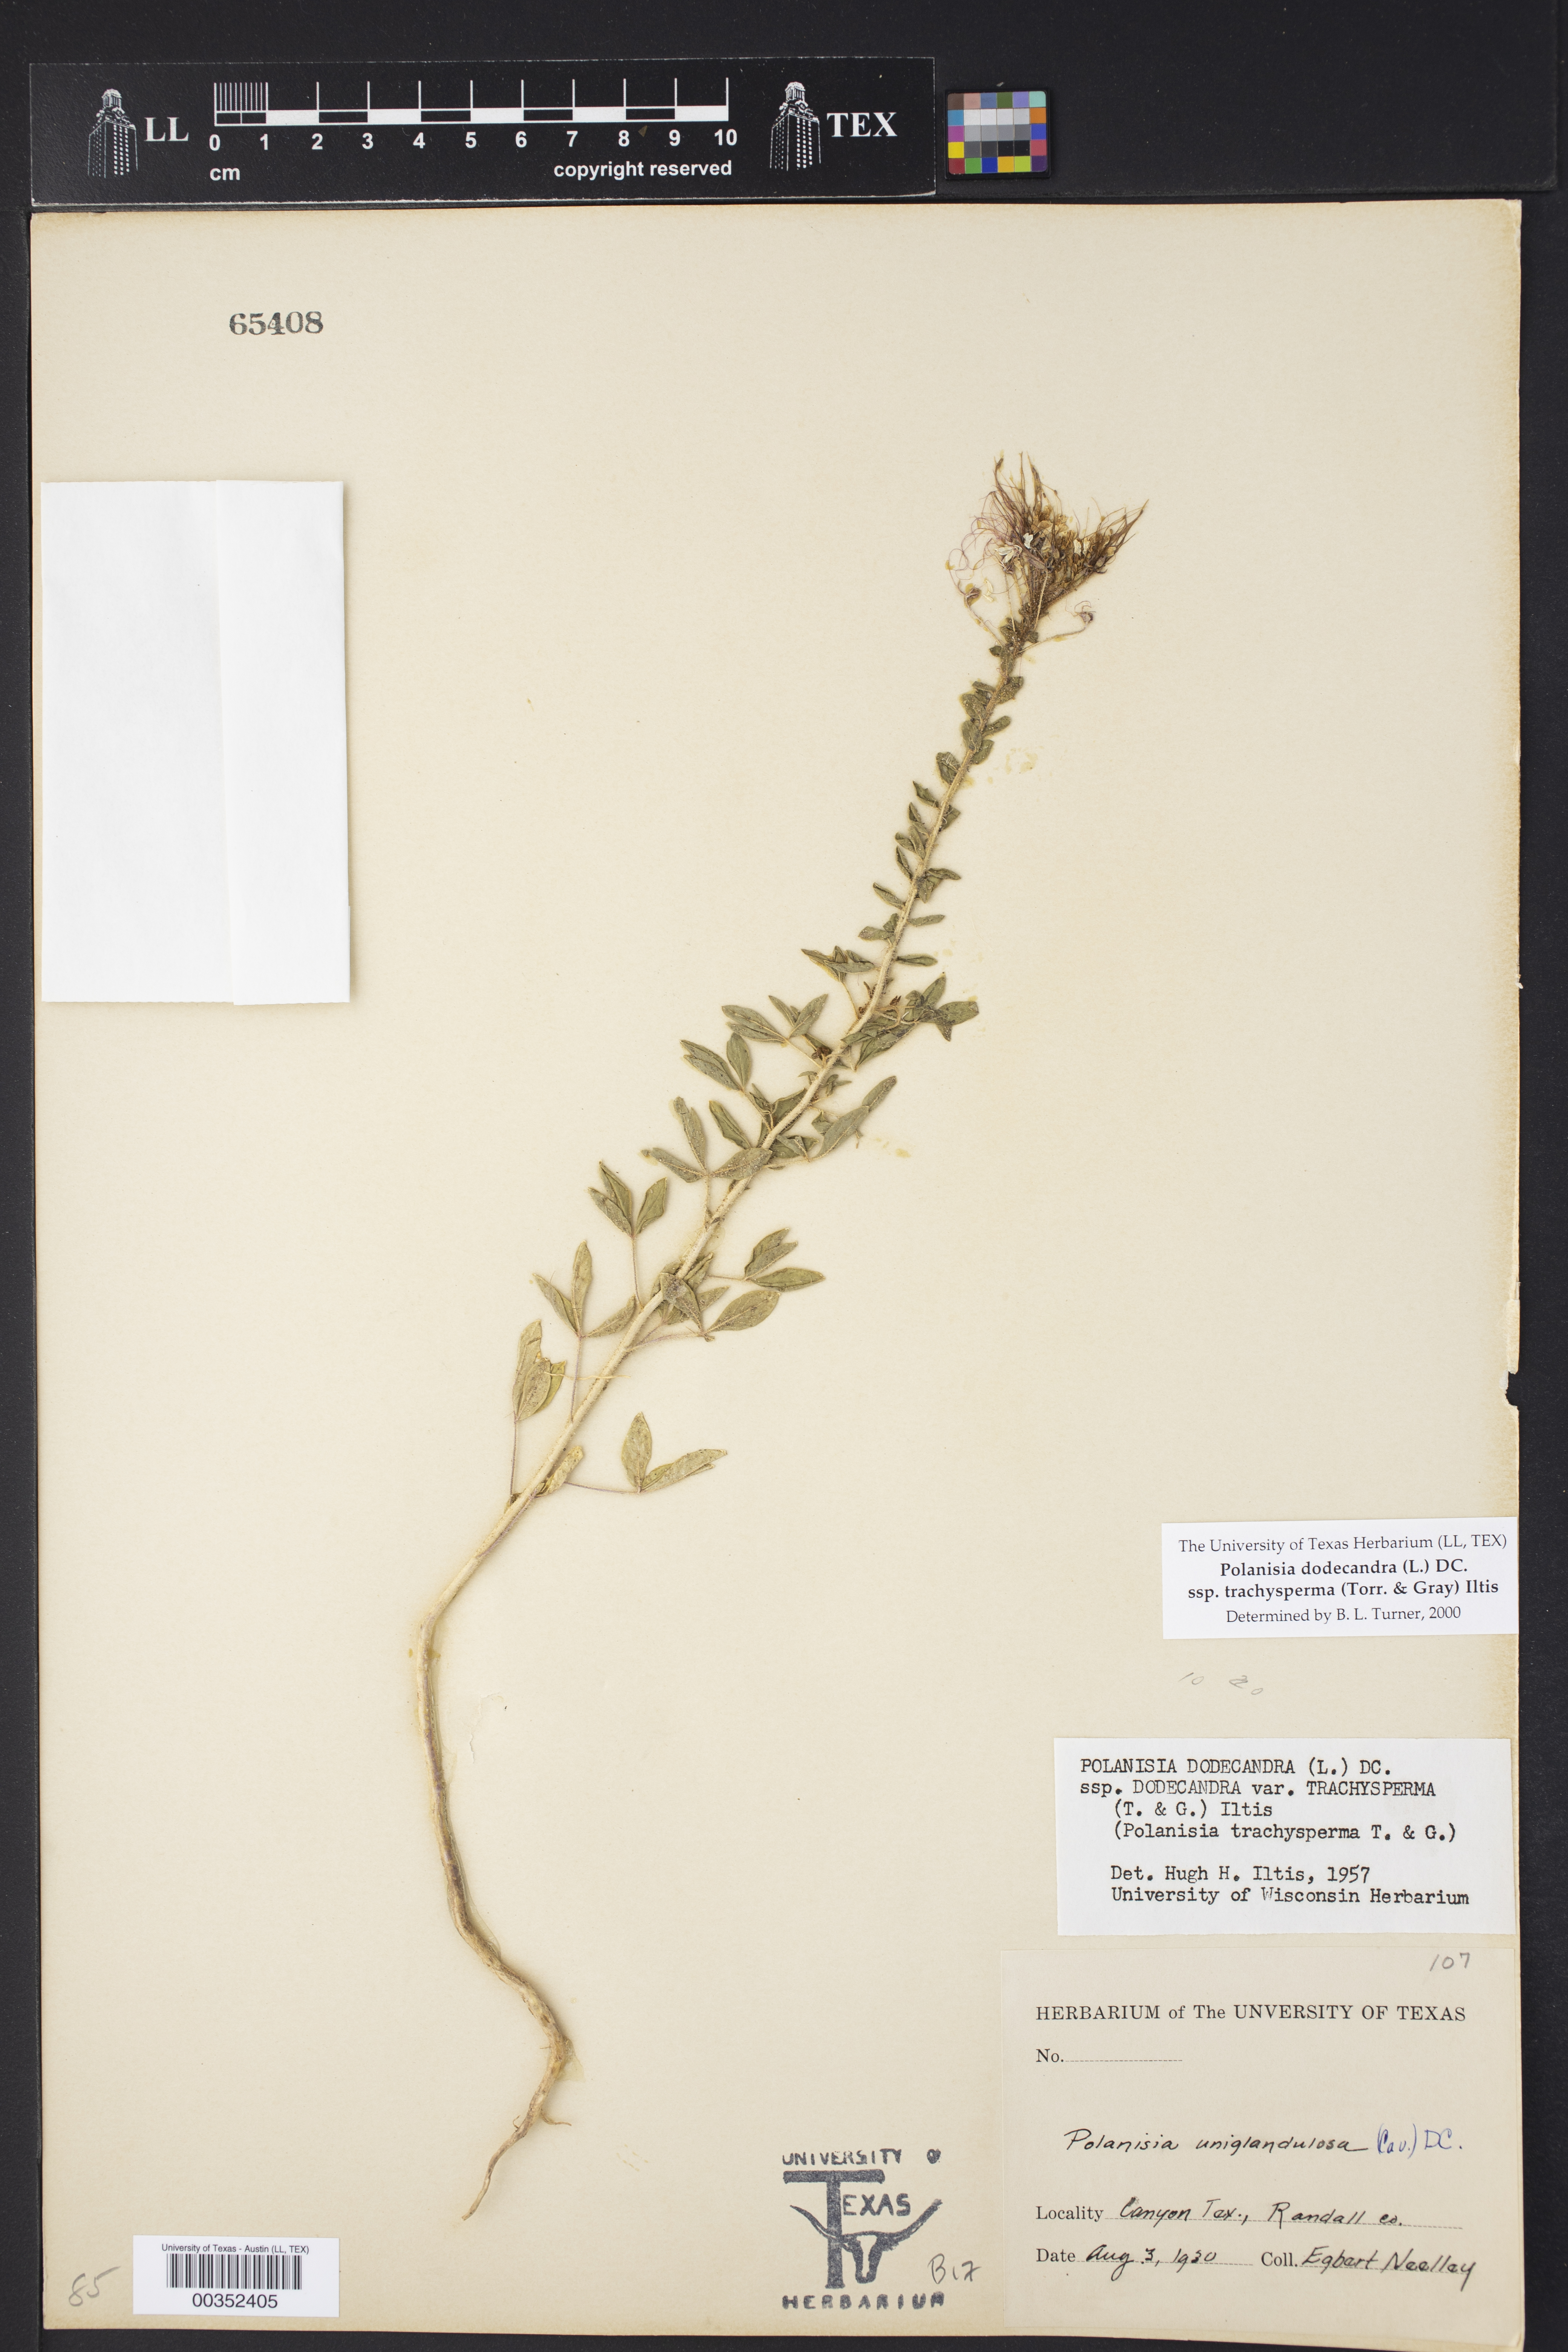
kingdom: Plantae
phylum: Tracheophyta
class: Magnoliopsida
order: Brassicales
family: Cleomaceae
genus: Polanisia
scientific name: Polanisia trachysperma
